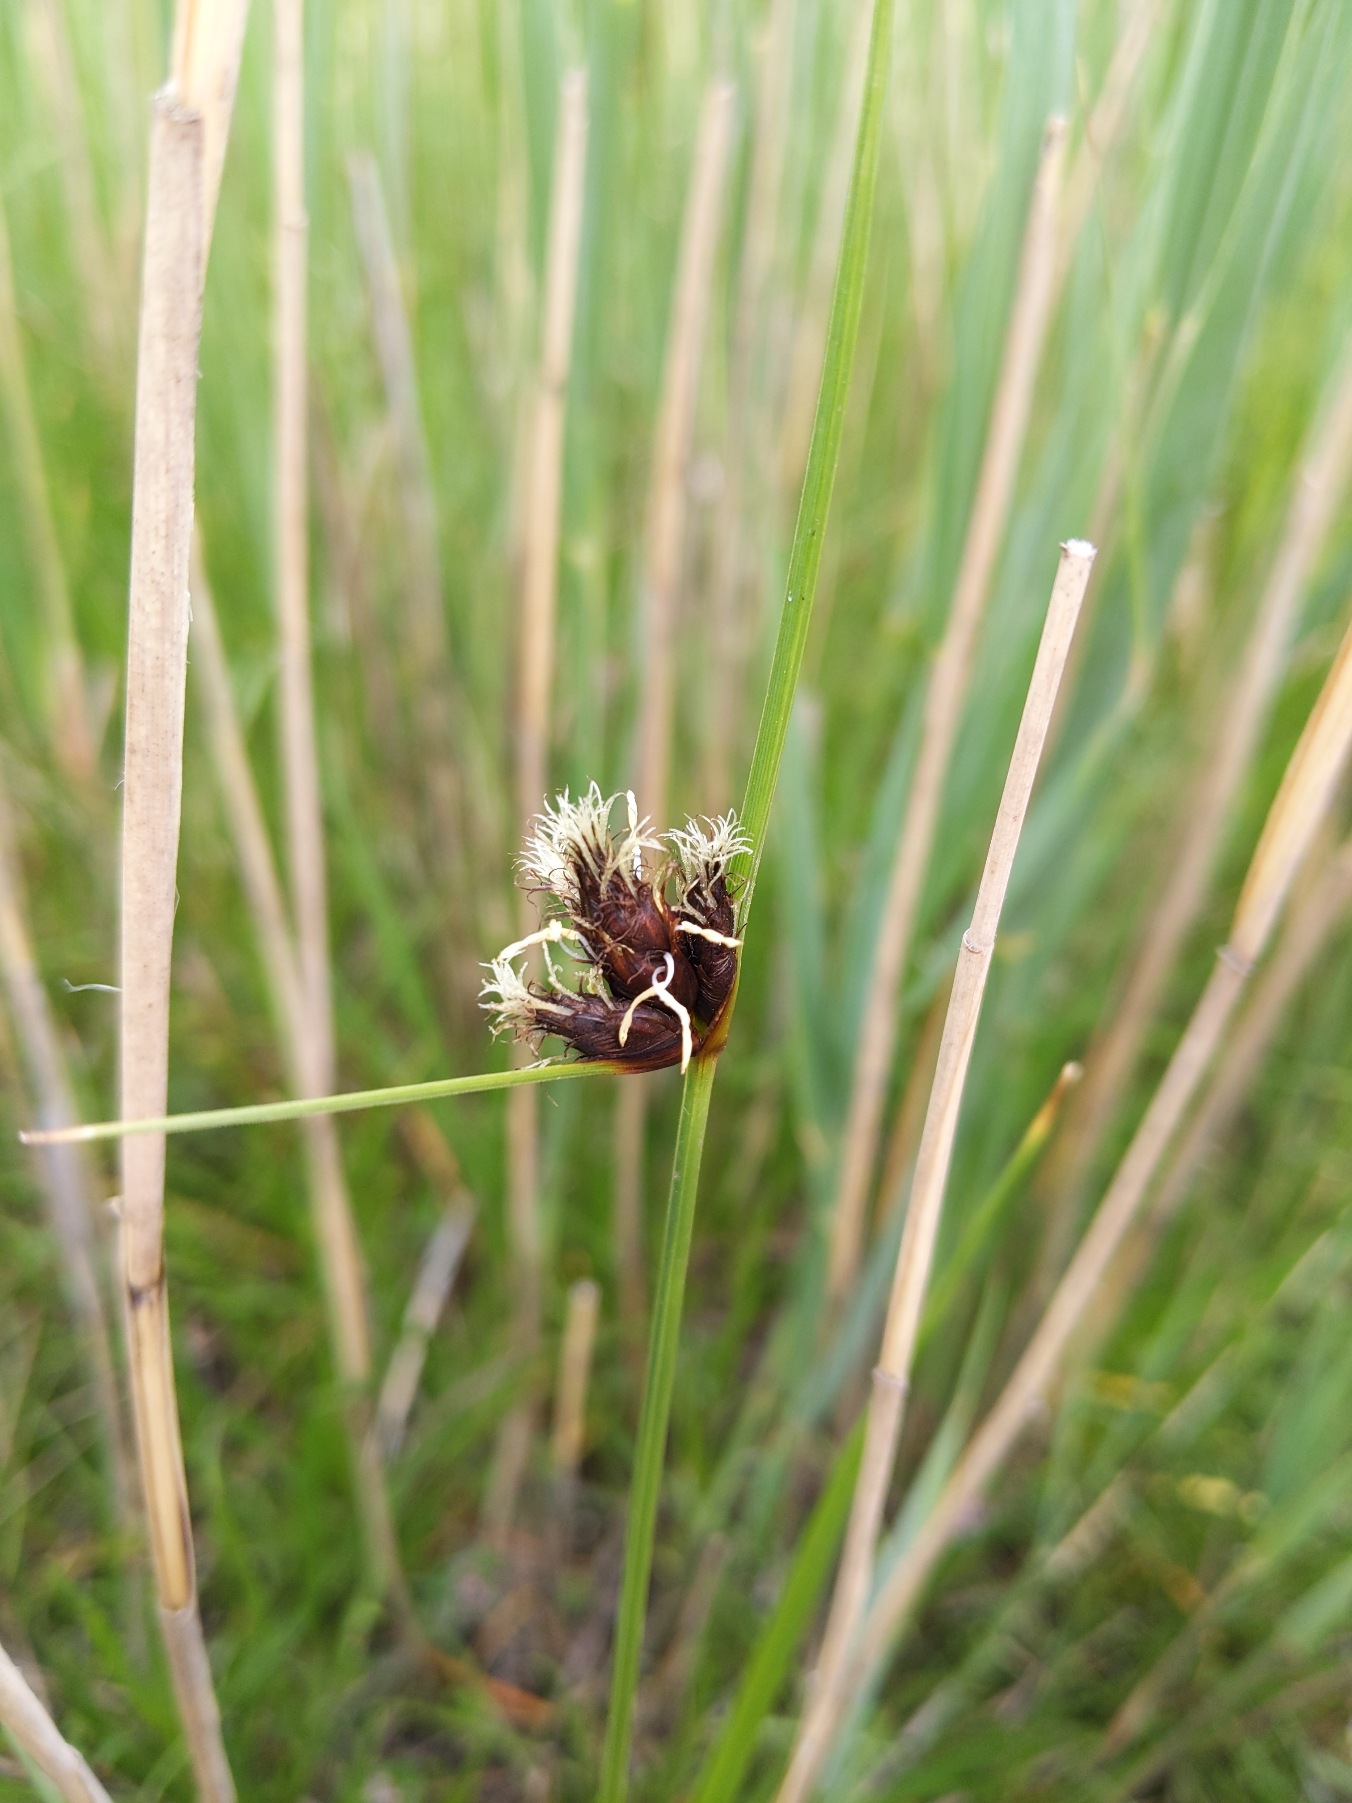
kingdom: Plantae
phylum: Tracheophyta
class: Liliopsida
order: Poales
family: Cyperaceae
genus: Bolboschoenus
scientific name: Bolboschoenus maritimus
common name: Strand-kogleaks
